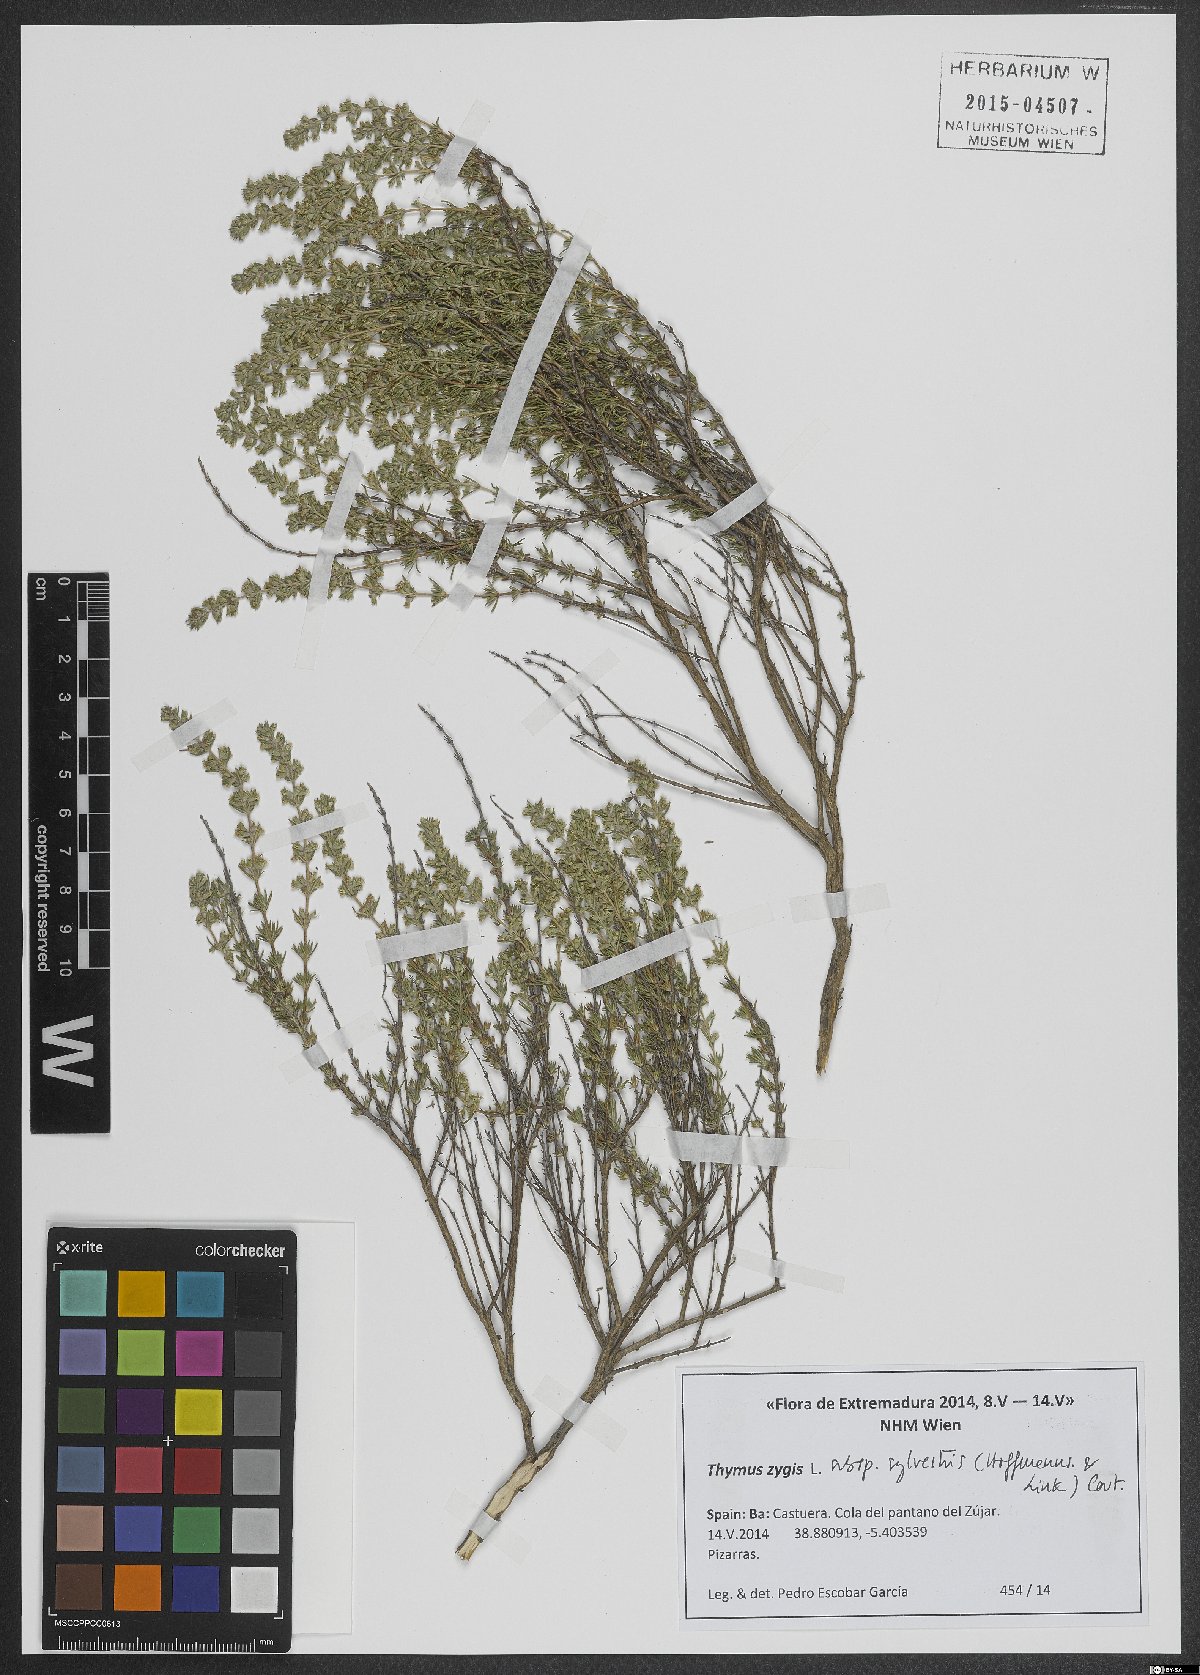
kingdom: Plantae
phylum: Tracheophyta
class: Magnoliopsida
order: Lamiales
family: Lamiaceae
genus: Thymus
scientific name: Thymus zygis
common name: White thyme
